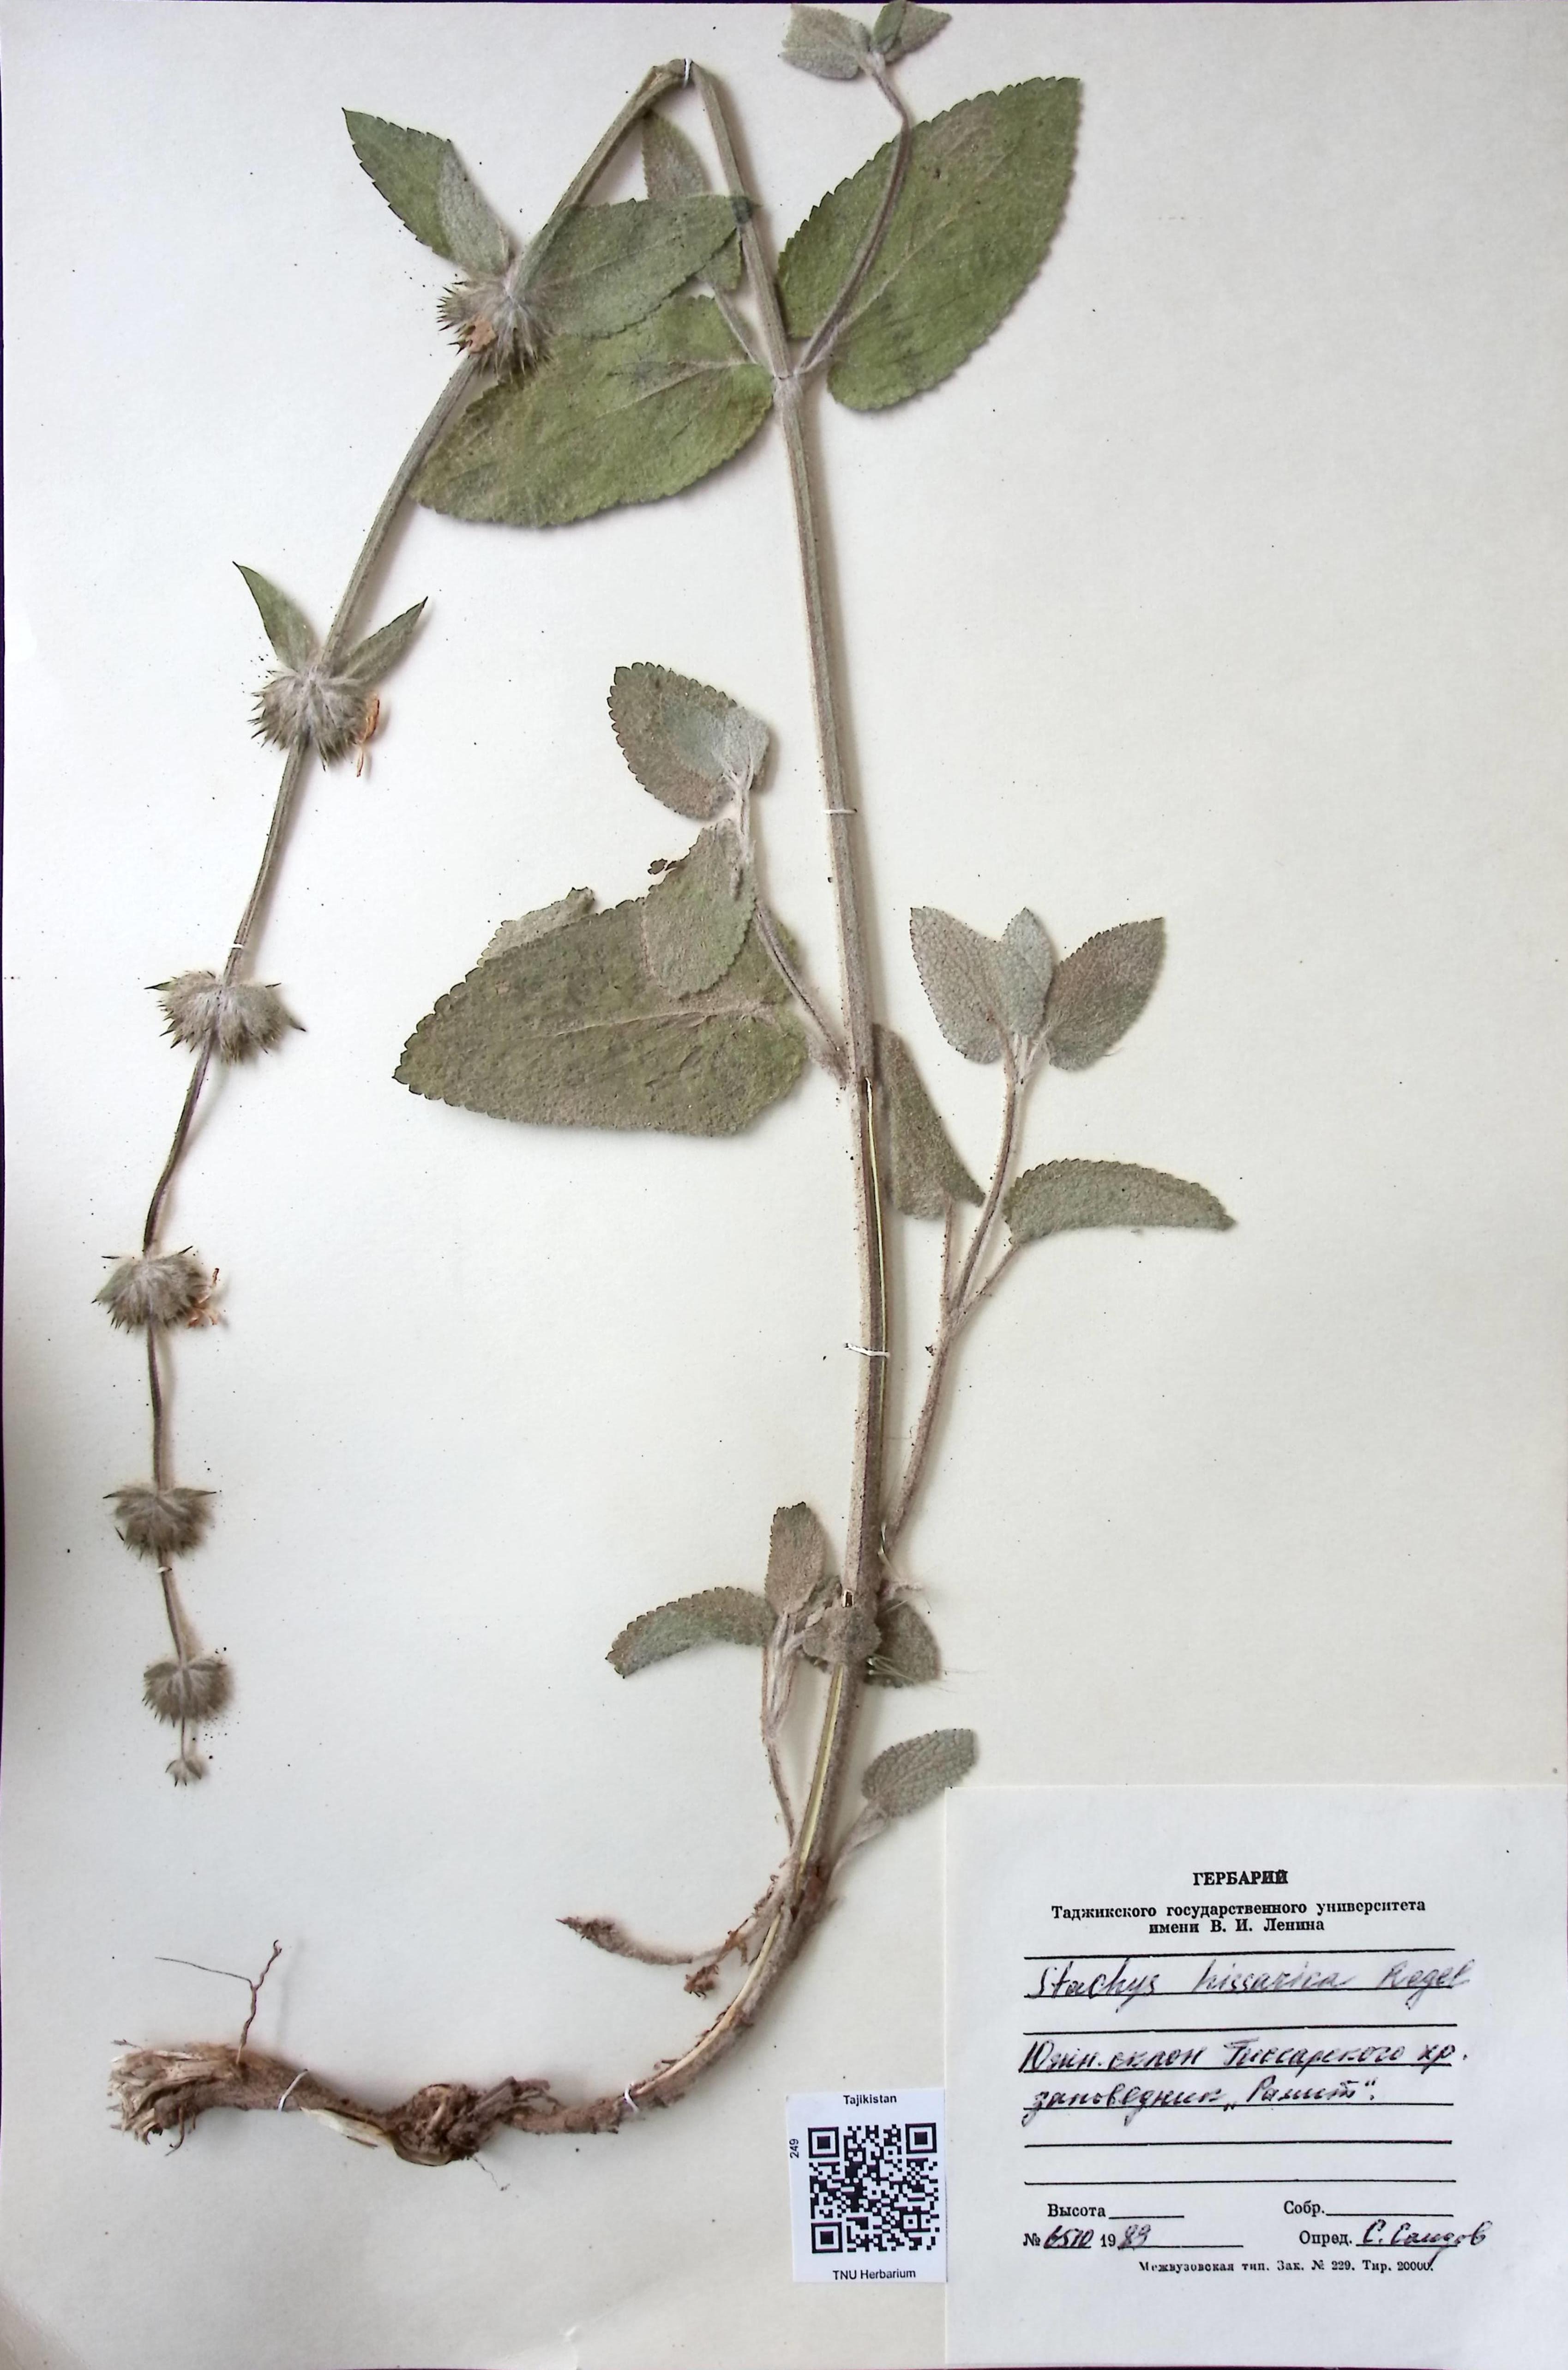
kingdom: Plantae
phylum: Tracheophyta
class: Magnoliopsida
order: Lamiales
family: Lamiaceae
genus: Stachys
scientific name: Stachys hissarica
